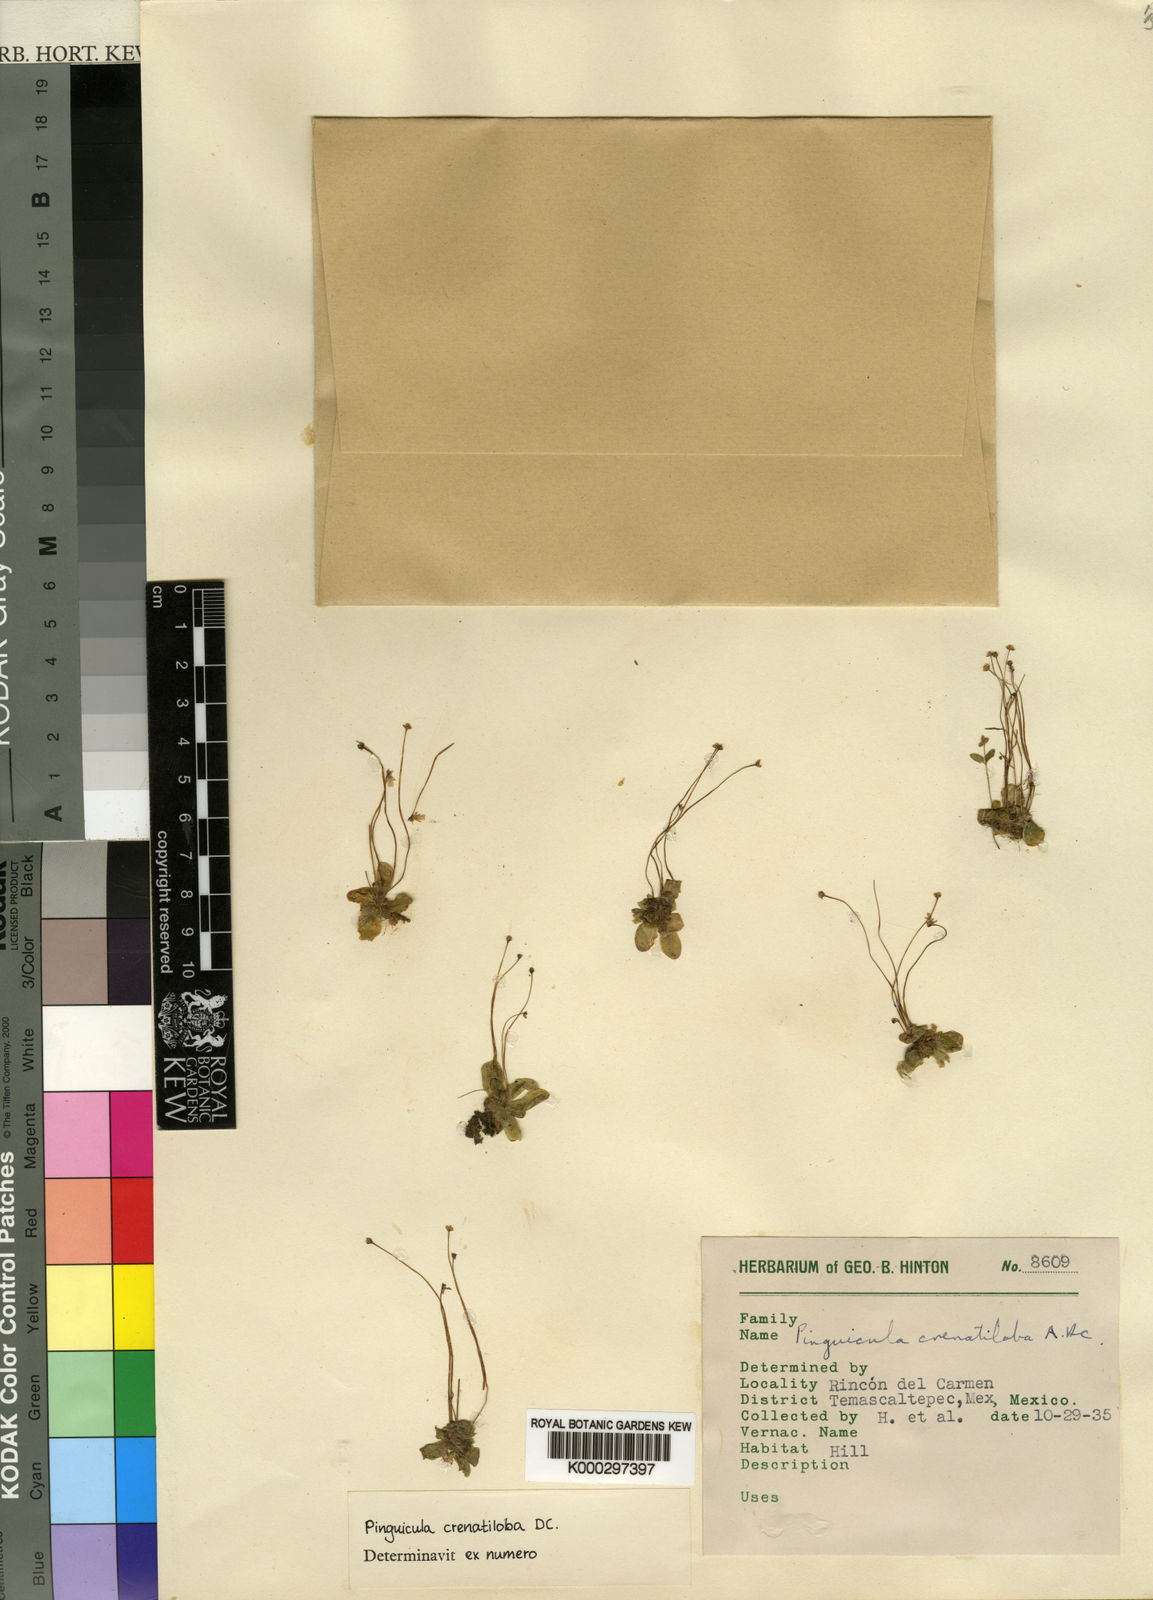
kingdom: Plantae
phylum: Tracheophyta
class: Magnoliopsida
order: Lamiales
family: Lentibulariaceae
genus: Pinguicula
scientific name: Pinguicula crenatiloba
